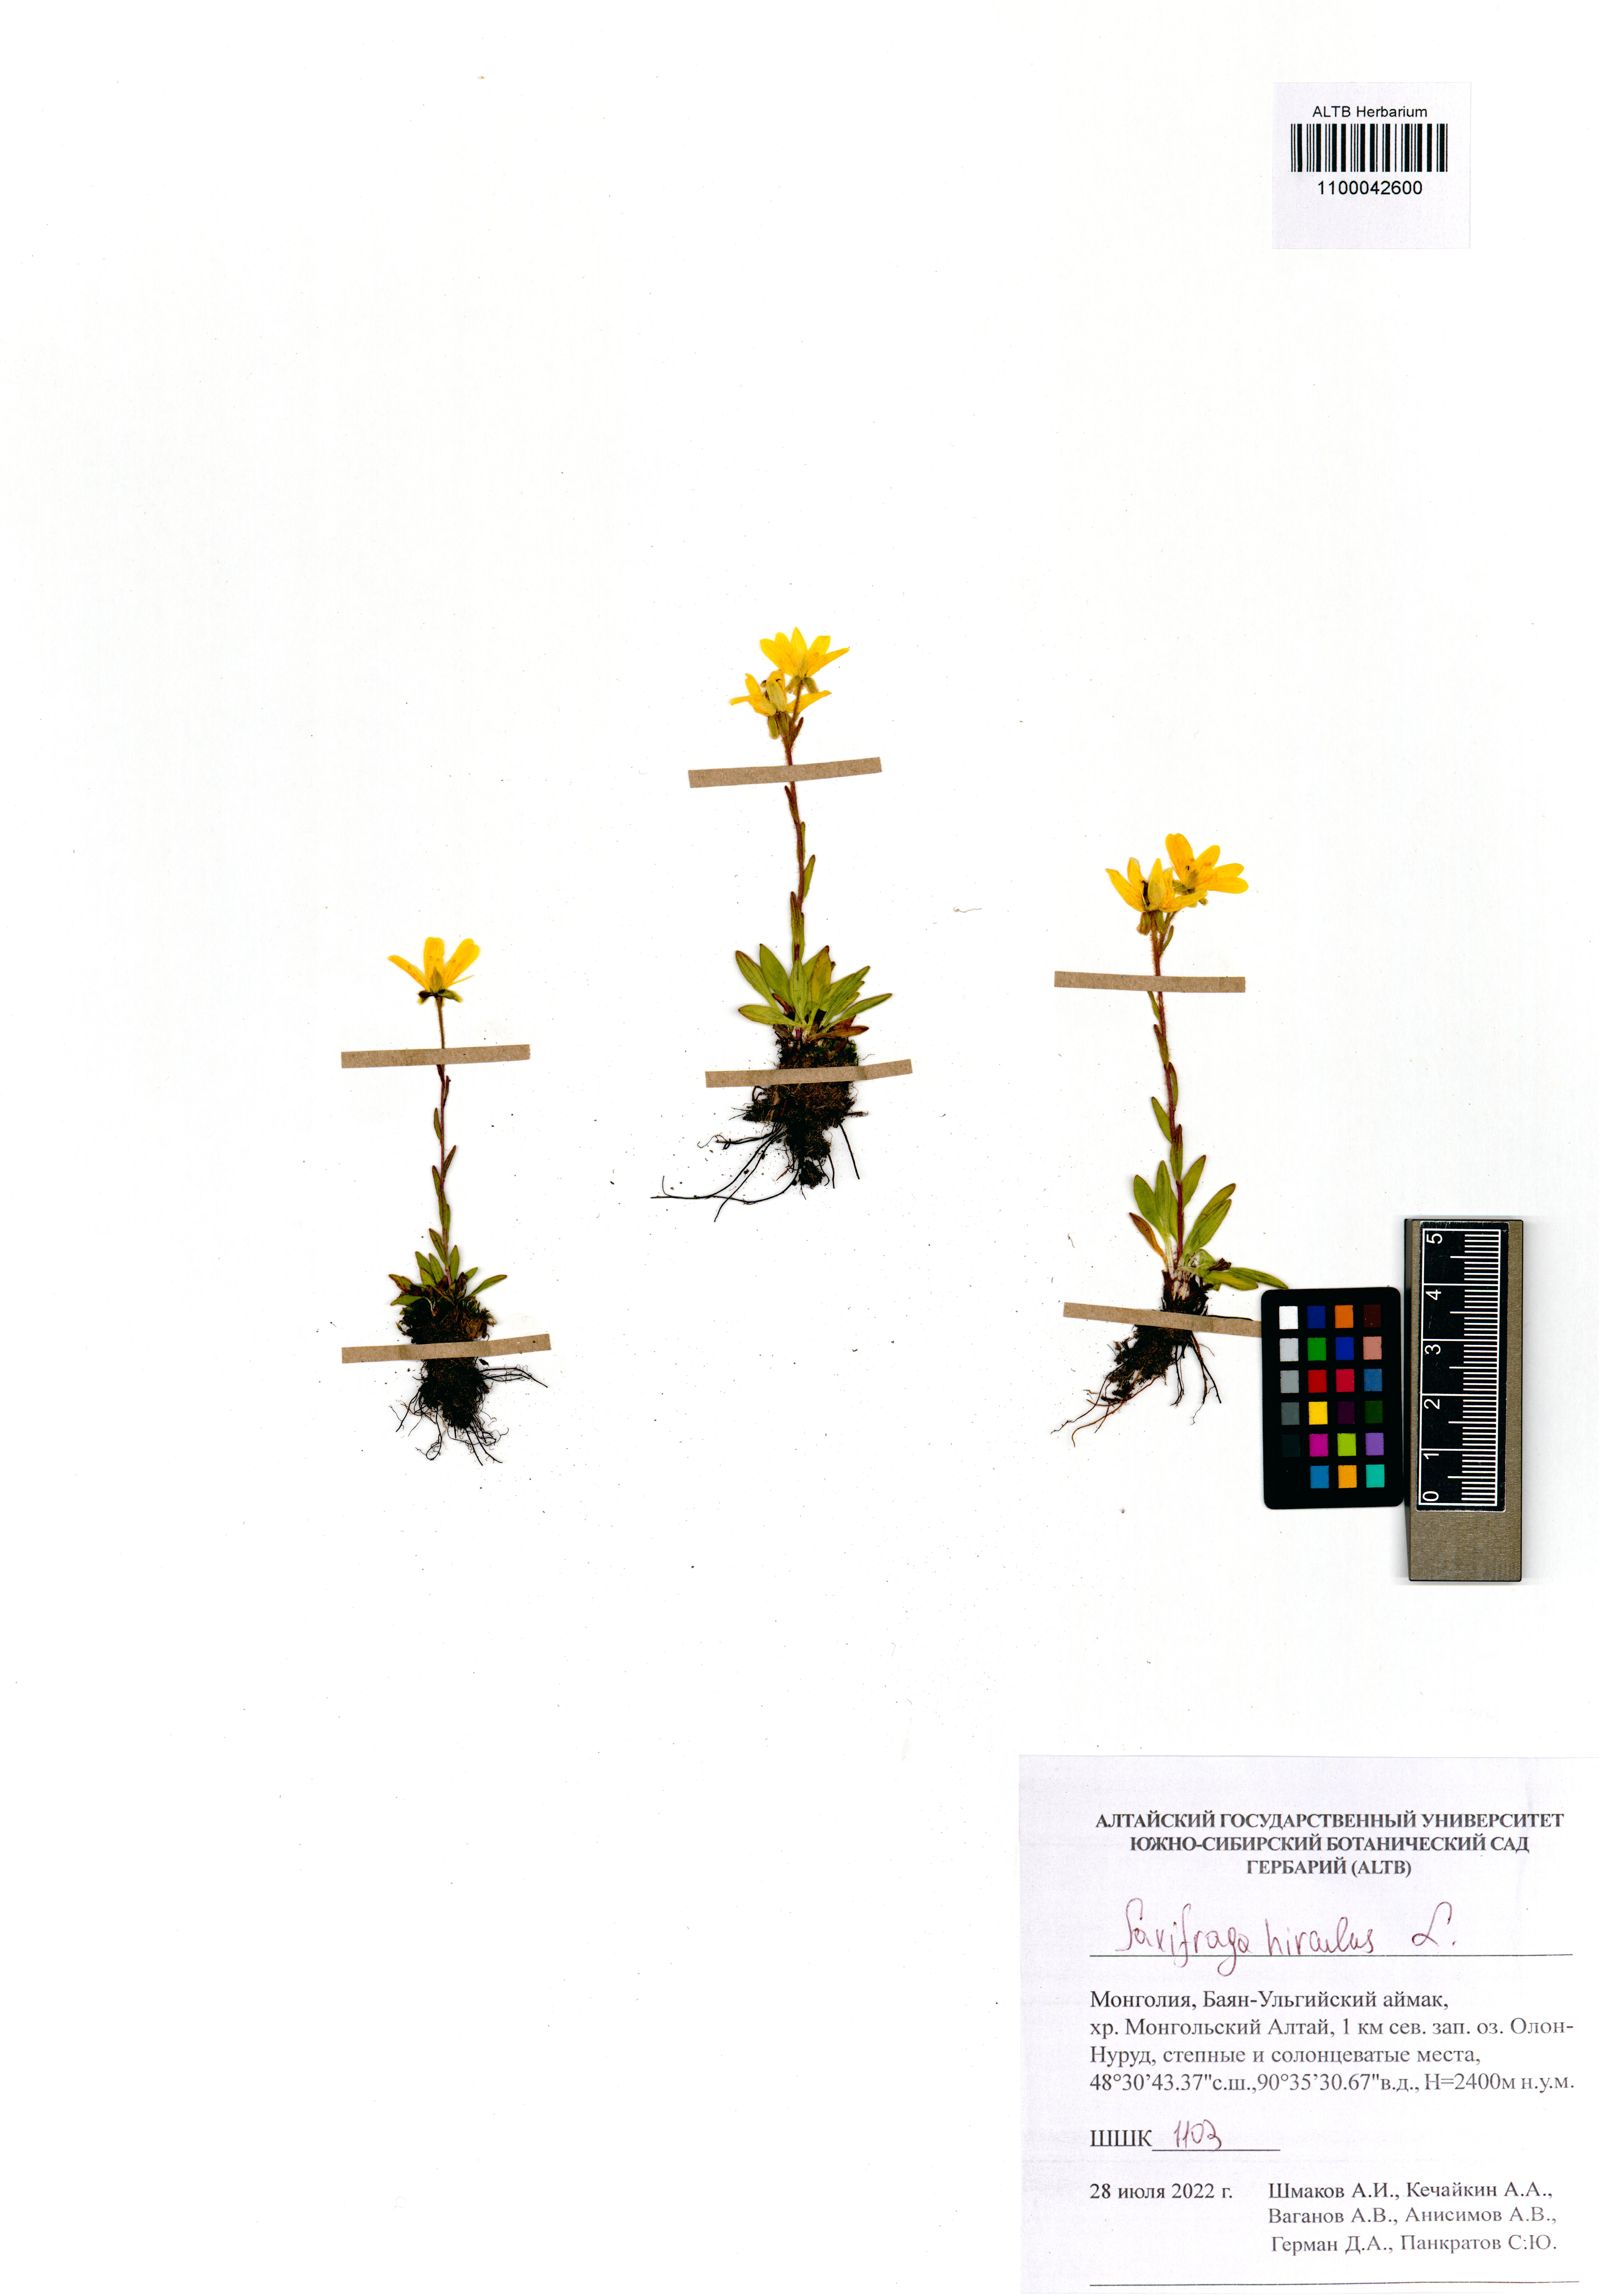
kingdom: Plantae
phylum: Tracheophyta
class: Magnoliopsida
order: Saxifragales
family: Saxifragaceae
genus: Saxifraga
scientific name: Saxifraga hirculus
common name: Yellow marsh saxifrage
